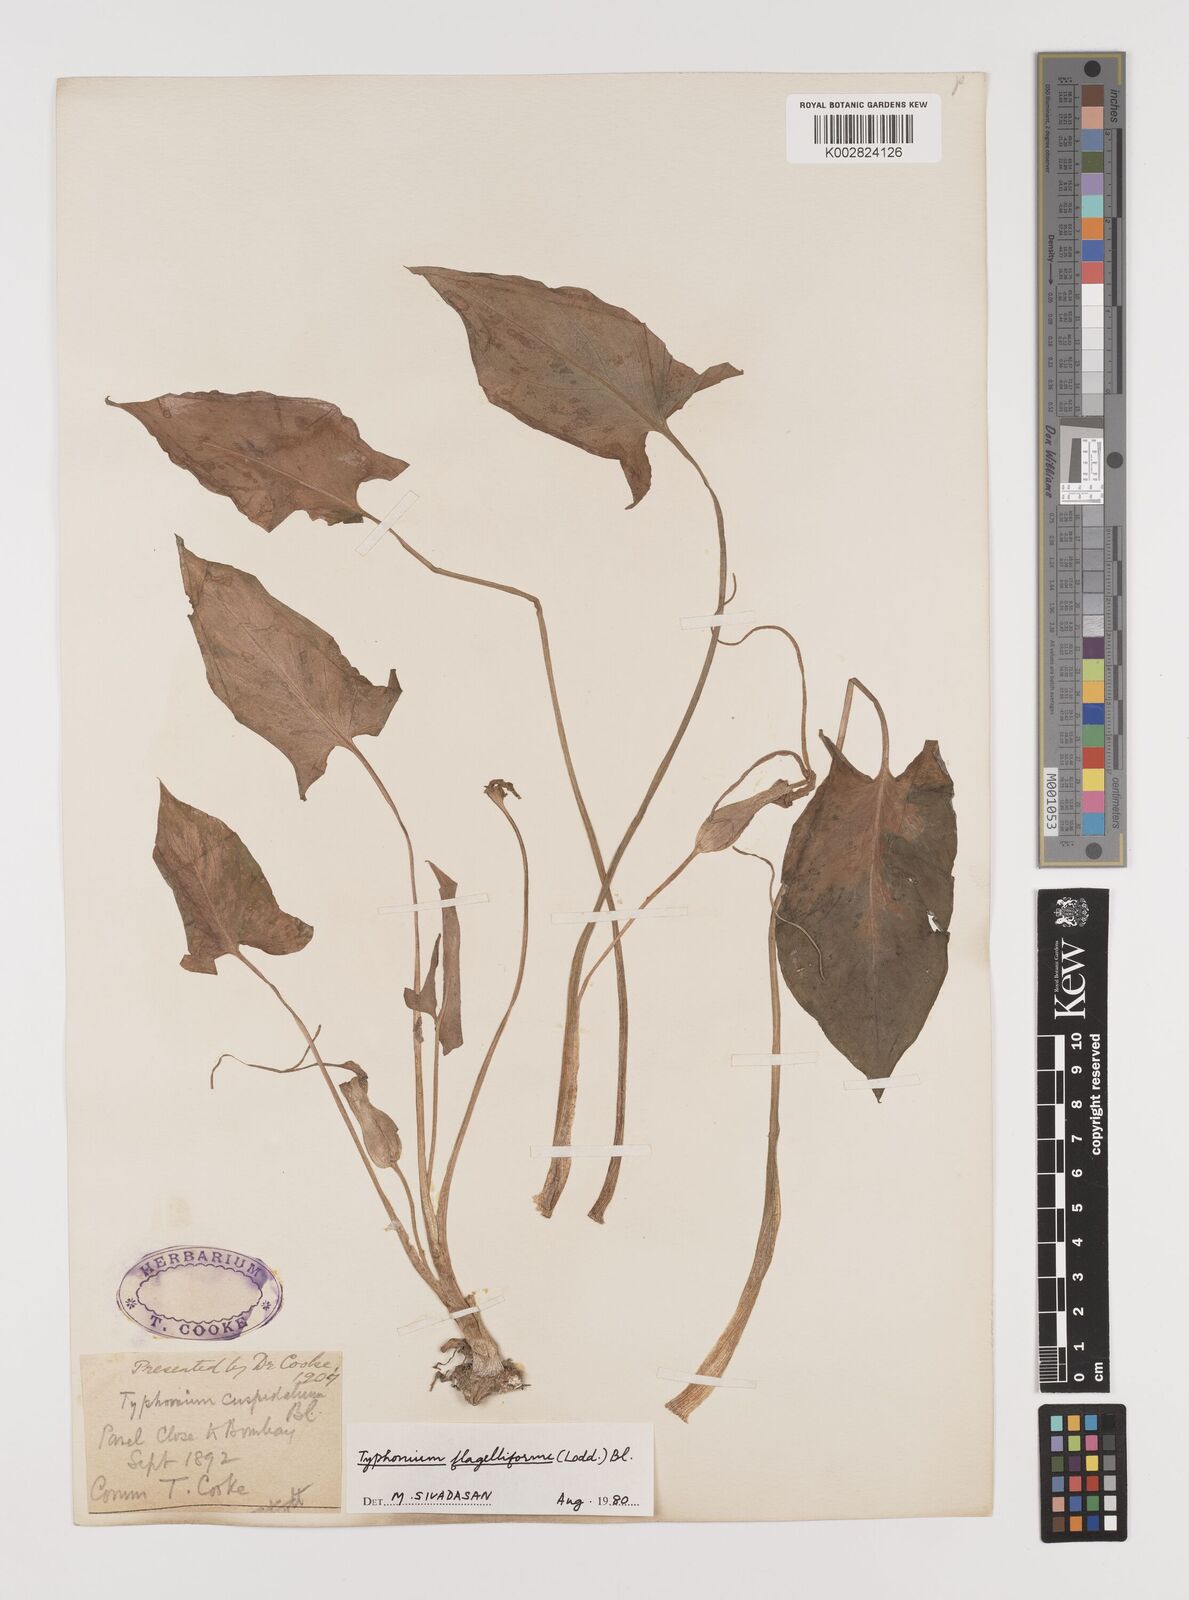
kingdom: Plantae
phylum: Tracheophyta
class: Liliopsida
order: Alismatales
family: Araceae
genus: Typhonium
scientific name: Typhonium flagelliforme
